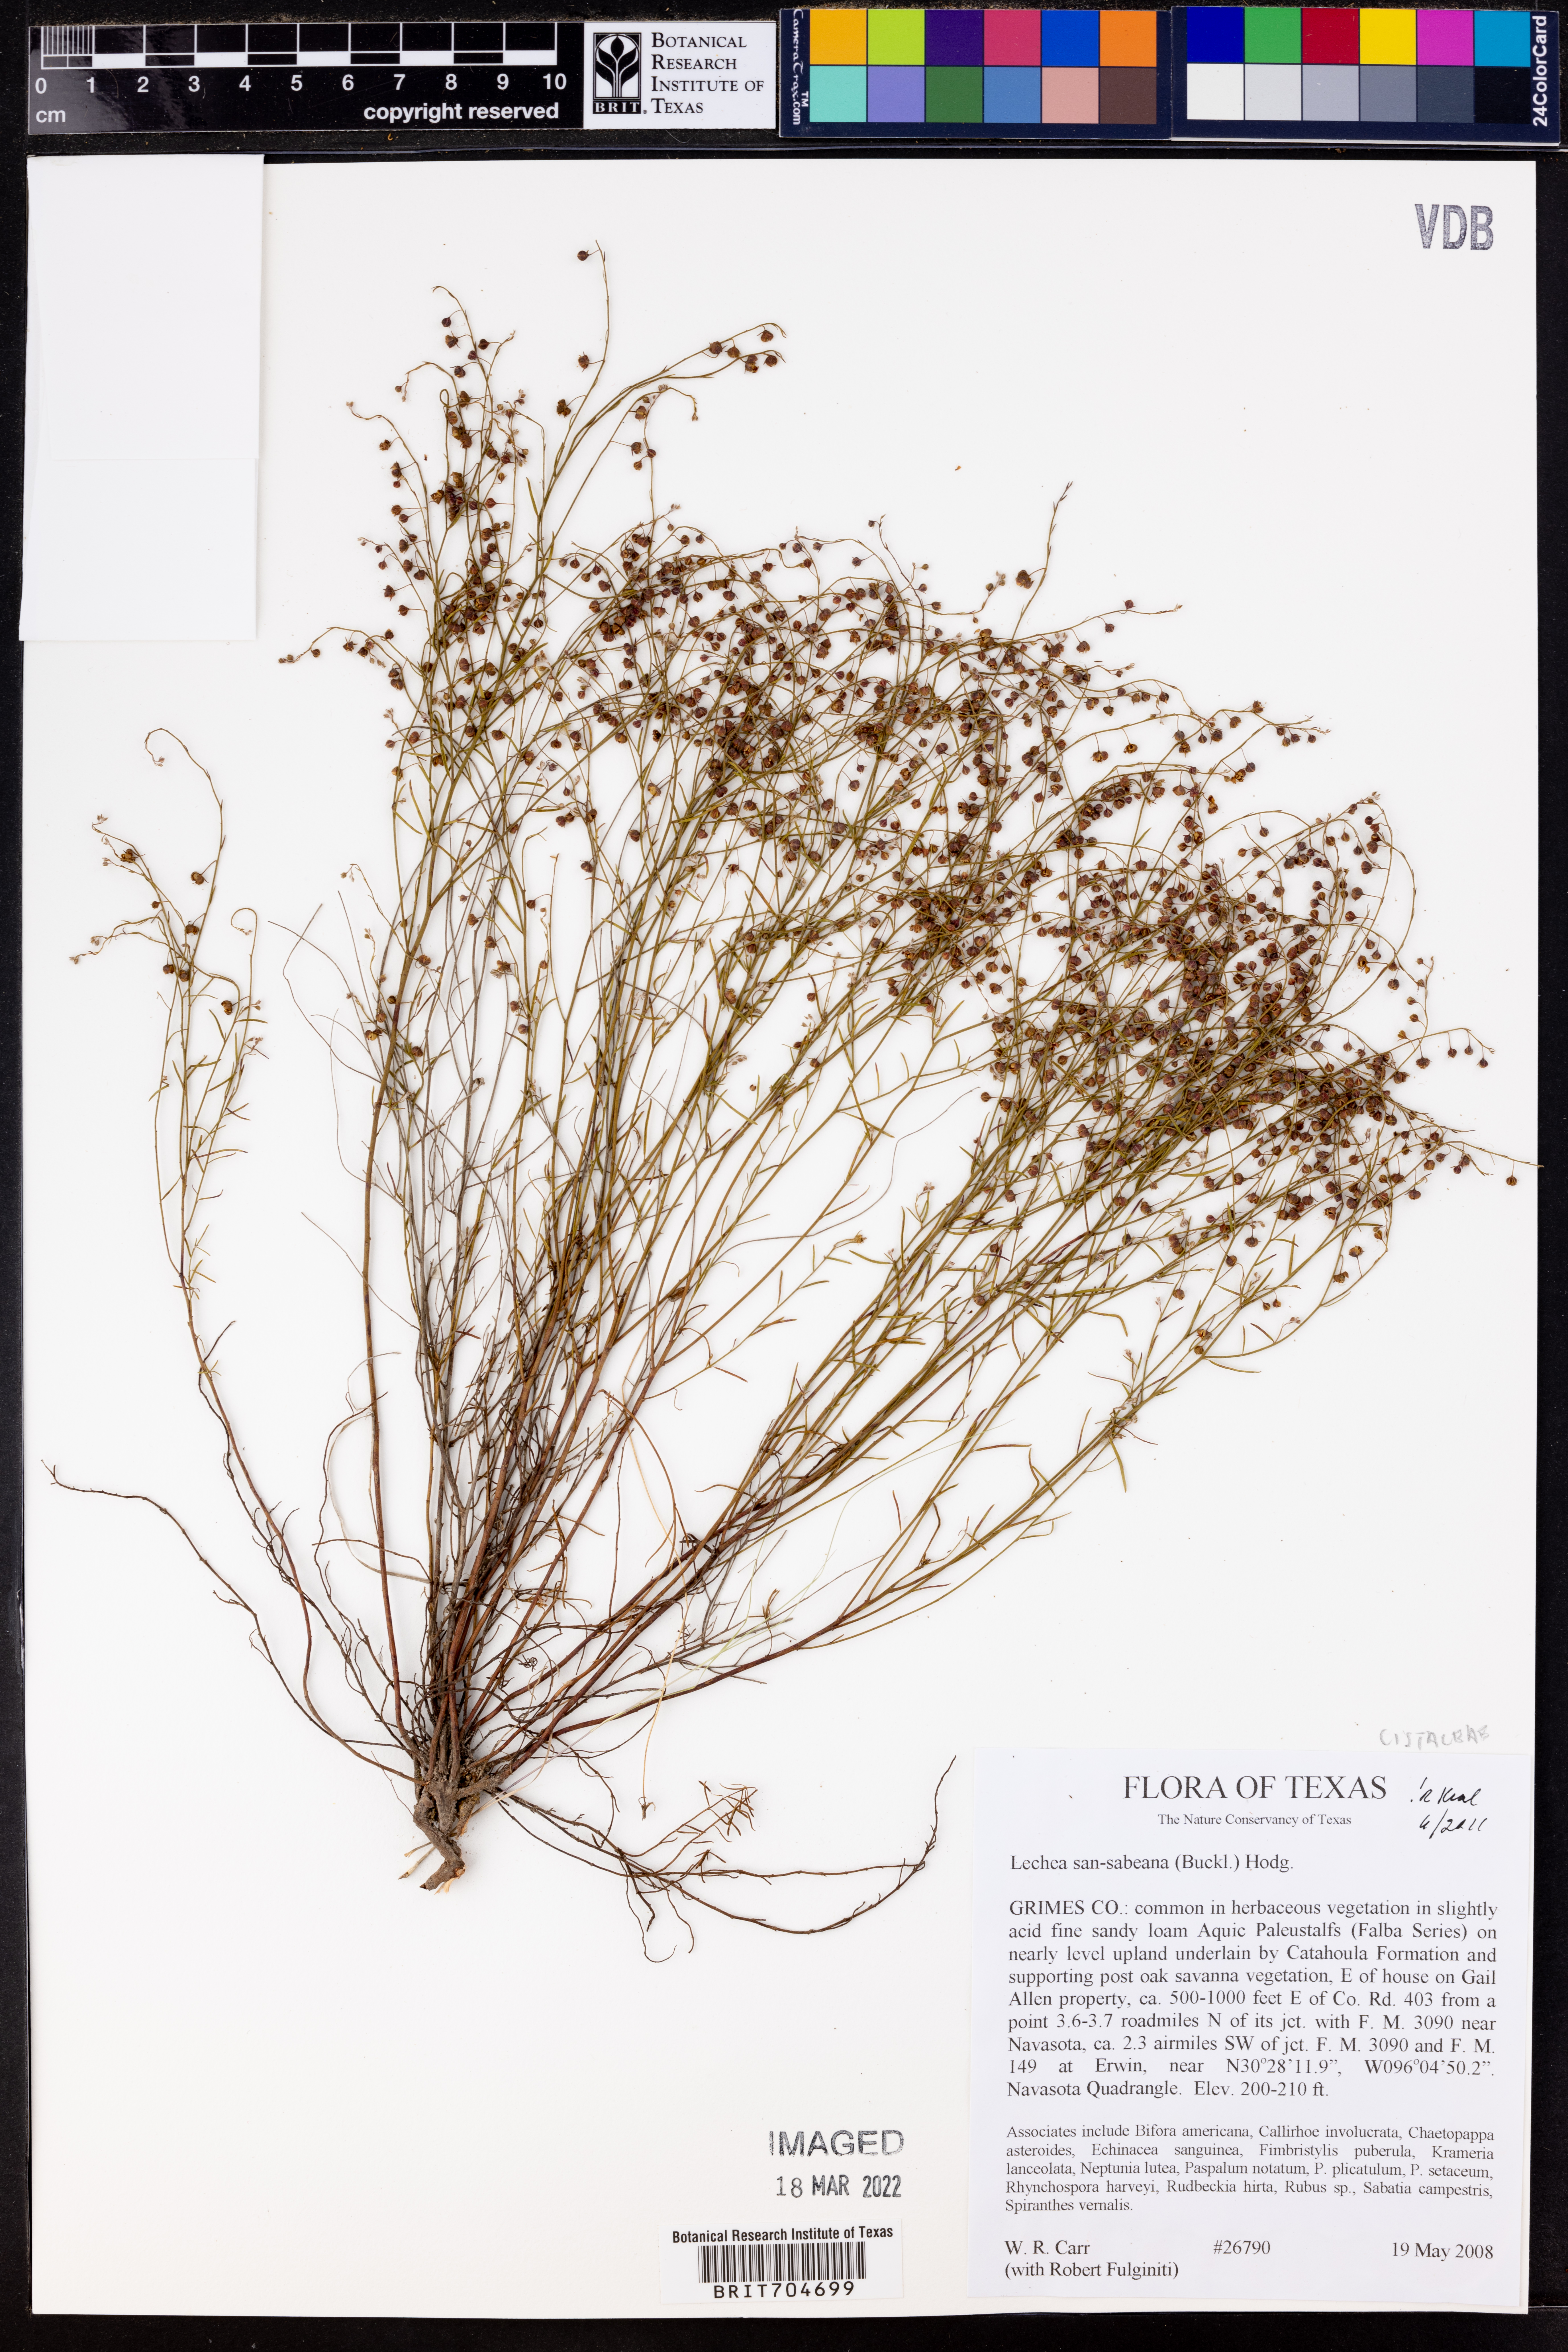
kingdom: Plantae
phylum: Tracheophyta
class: Magnoliopsida
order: Malvales
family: Cistaceae
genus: Lechea
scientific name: Lechea san-sabeana
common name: San saba pinweed
